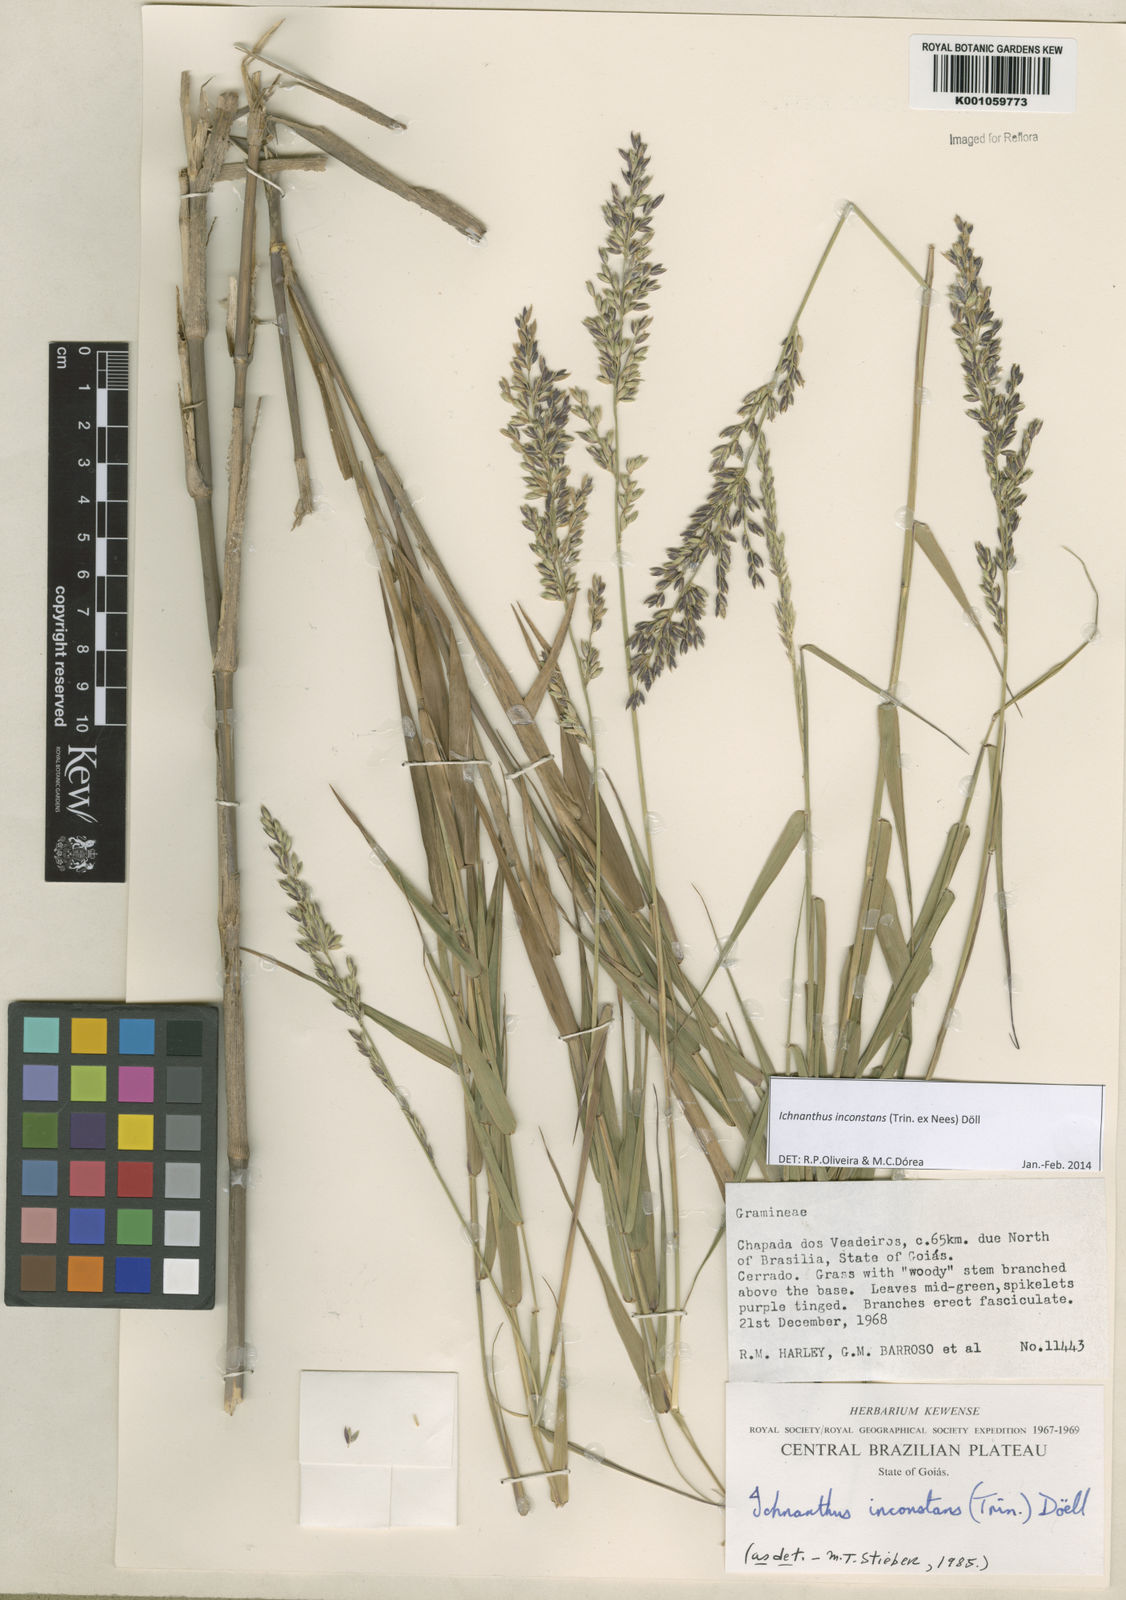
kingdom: Plantae
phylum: Tracheophyta
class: Liliopsida
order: Poales
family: Poaceae
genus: Ichnanthus
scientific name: Ichnanthus
